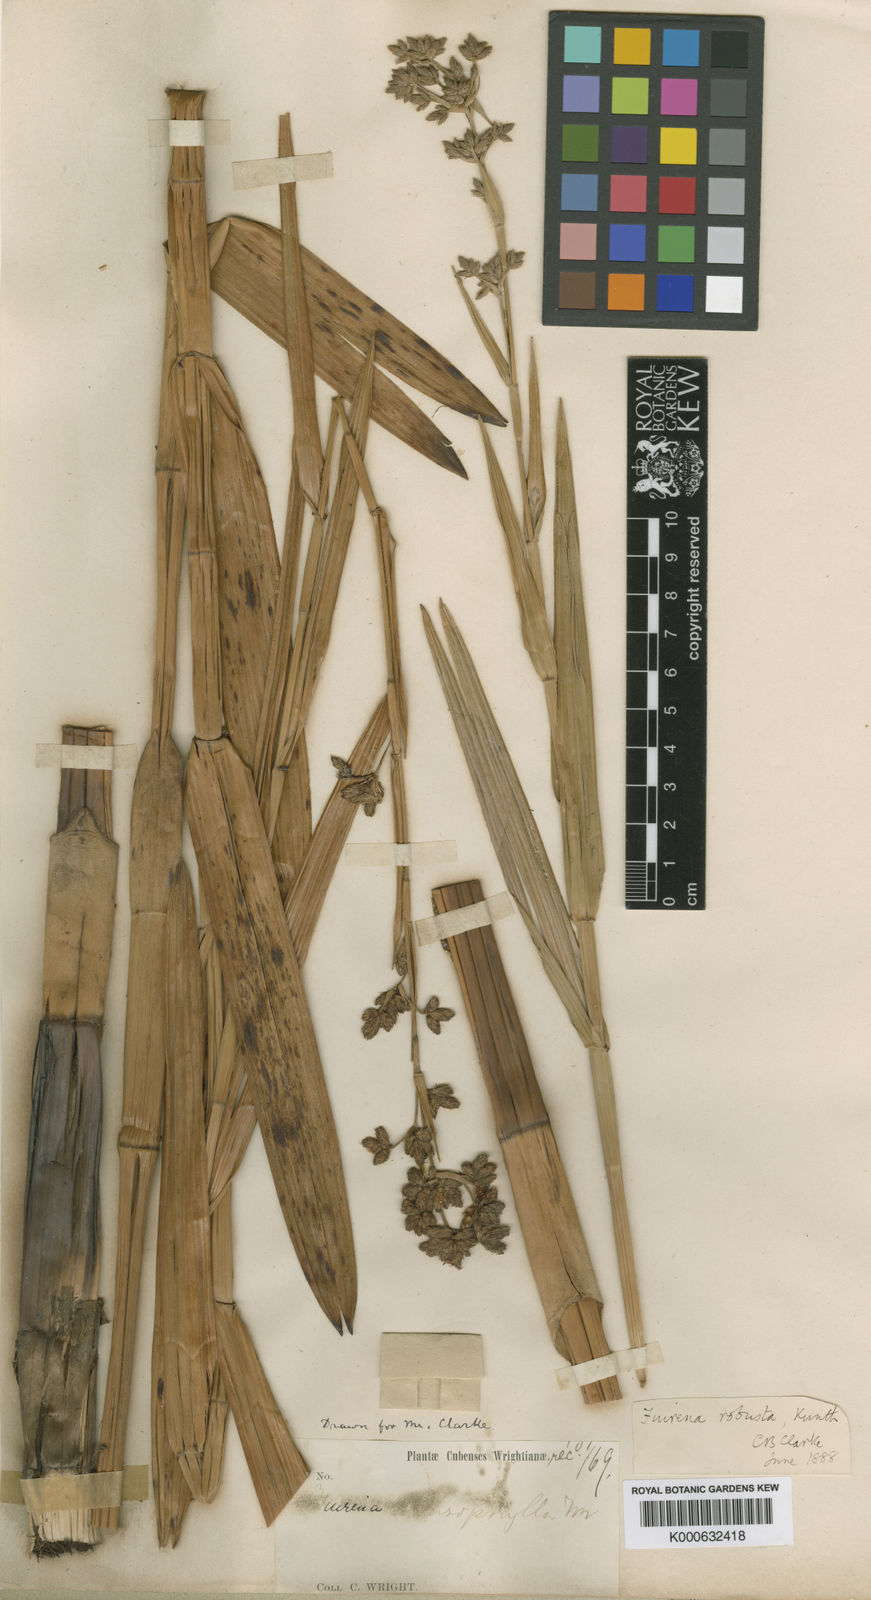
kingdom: Plantae
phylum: Tracheophyta
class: Liliopsida
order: Poales
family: Cyperaceae
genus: Fuirena
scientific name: Fuirena robusta
